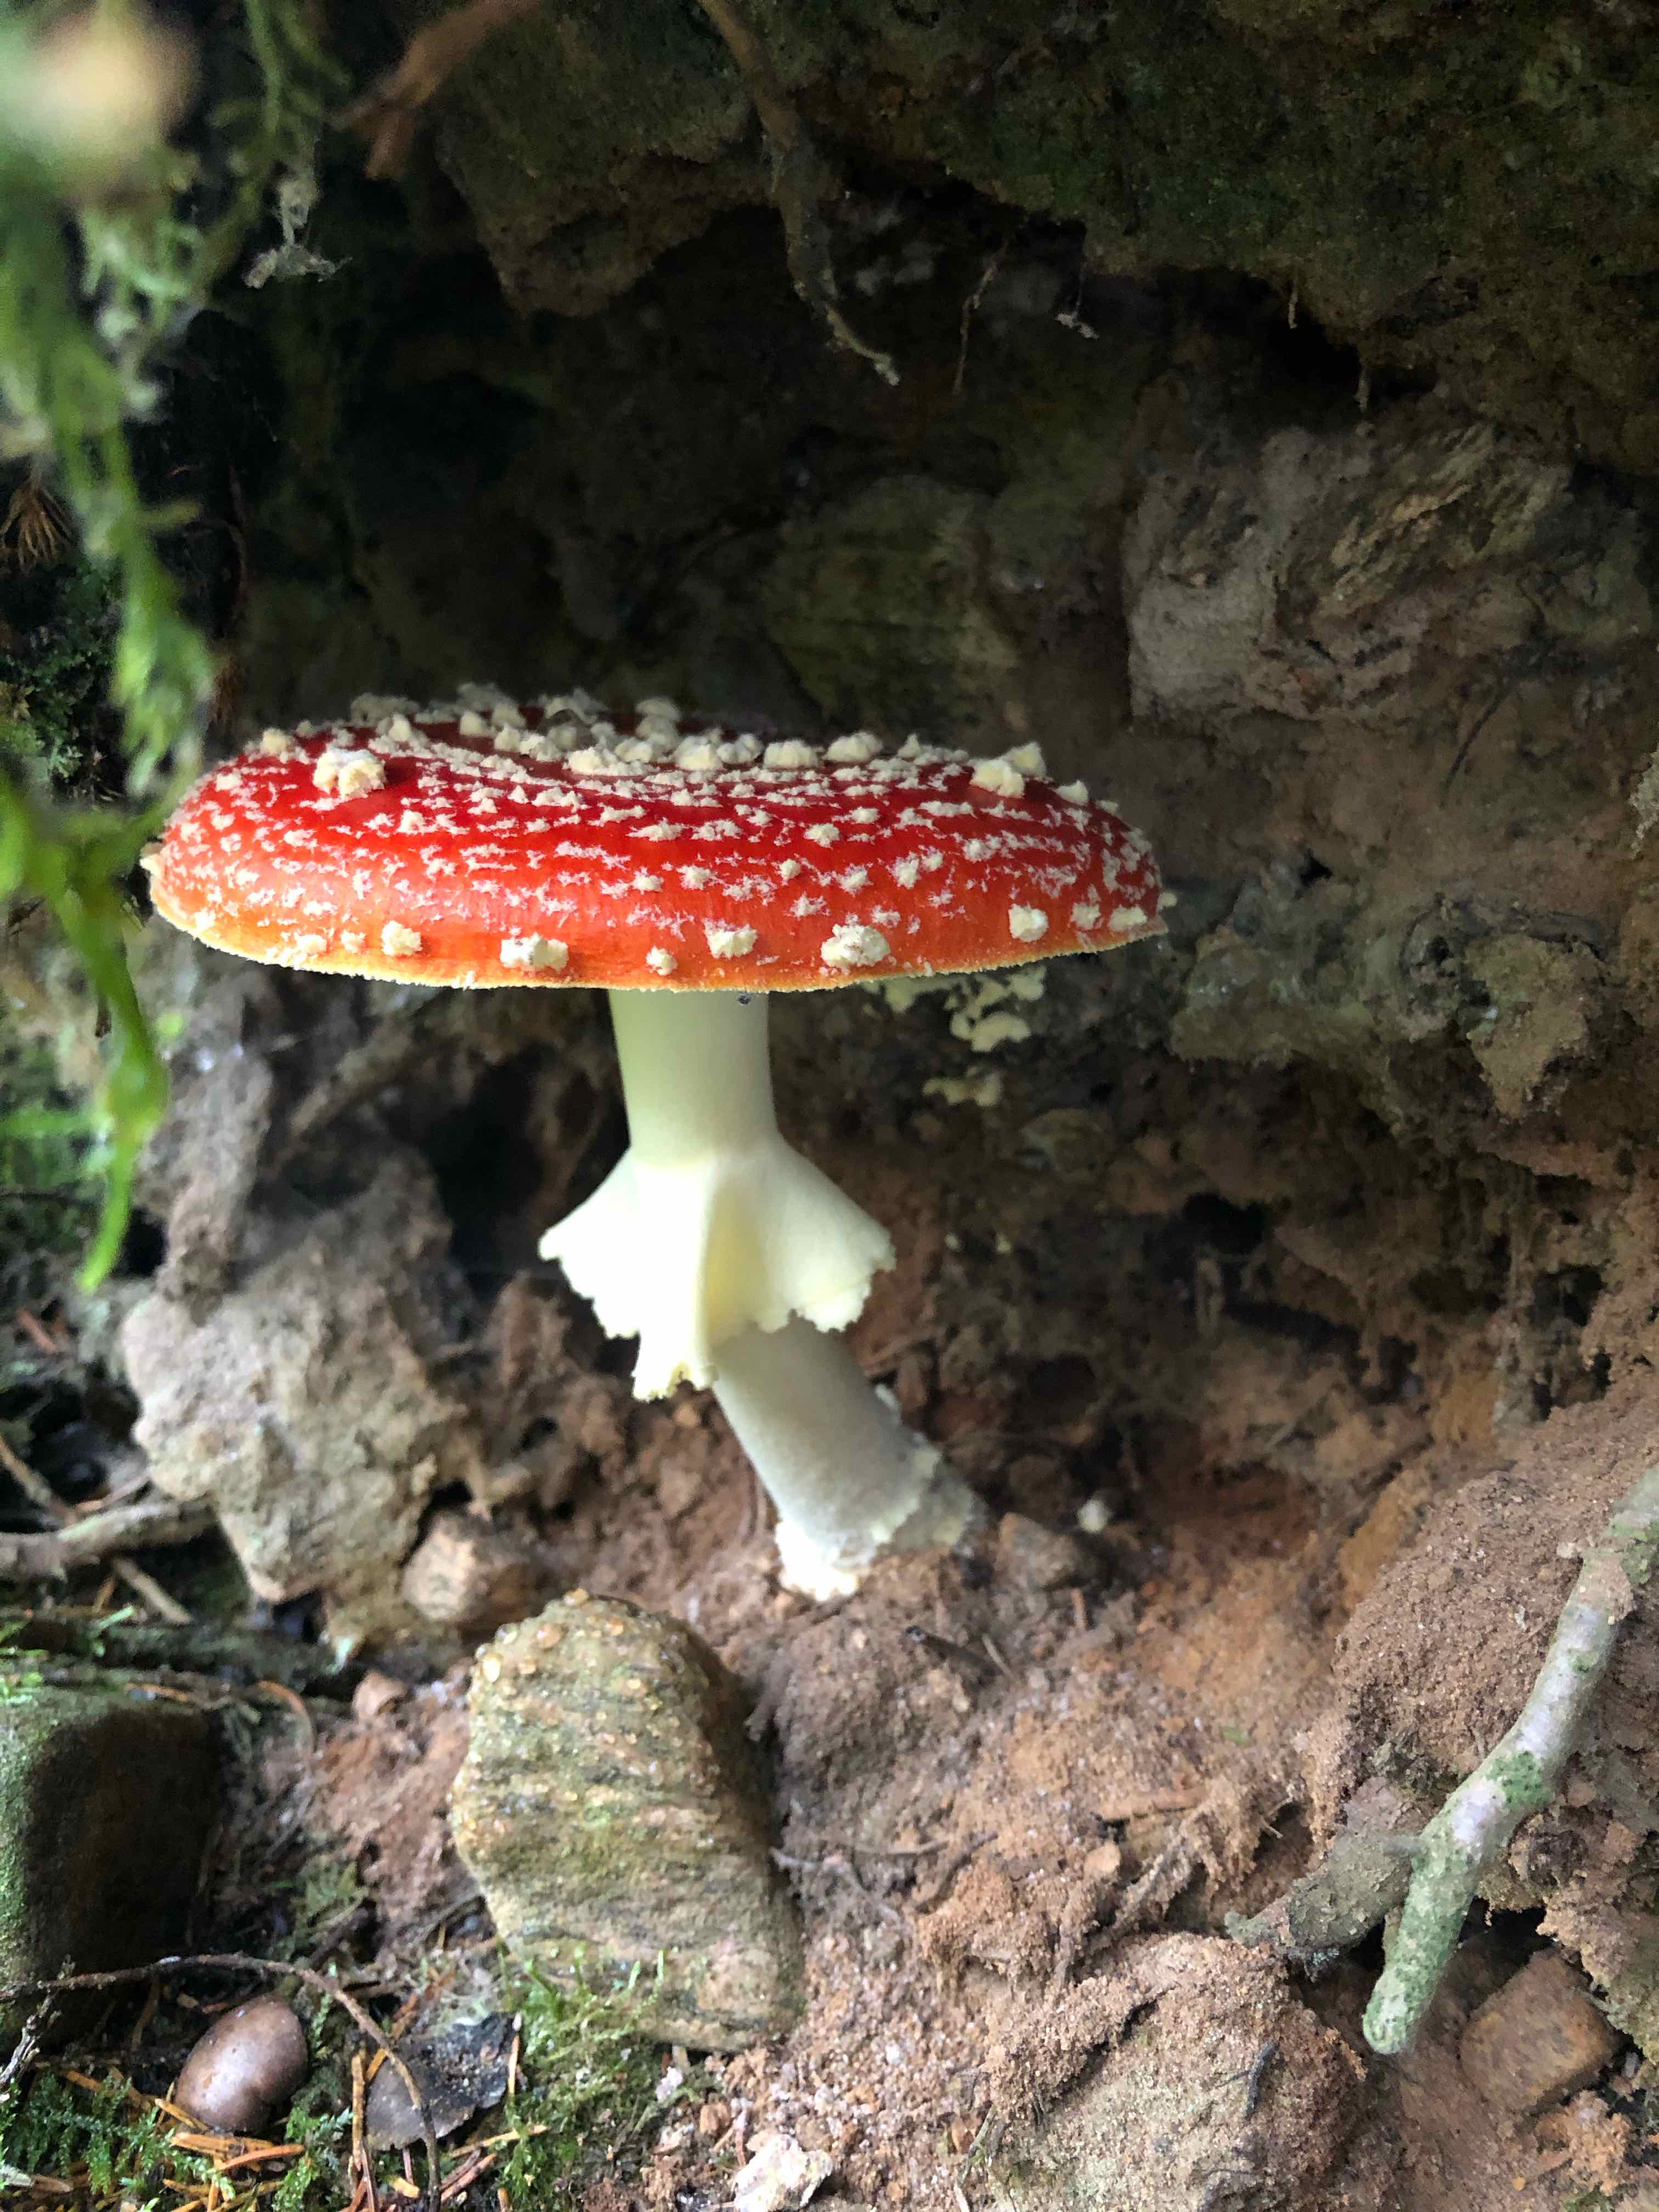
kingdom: Fungi
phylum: Basidiomycota
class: Agaricomycetes
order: Agaricales
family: Amanitaceae
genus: Amanita
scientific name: Amanita muscaria
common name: rød fluesvamp
